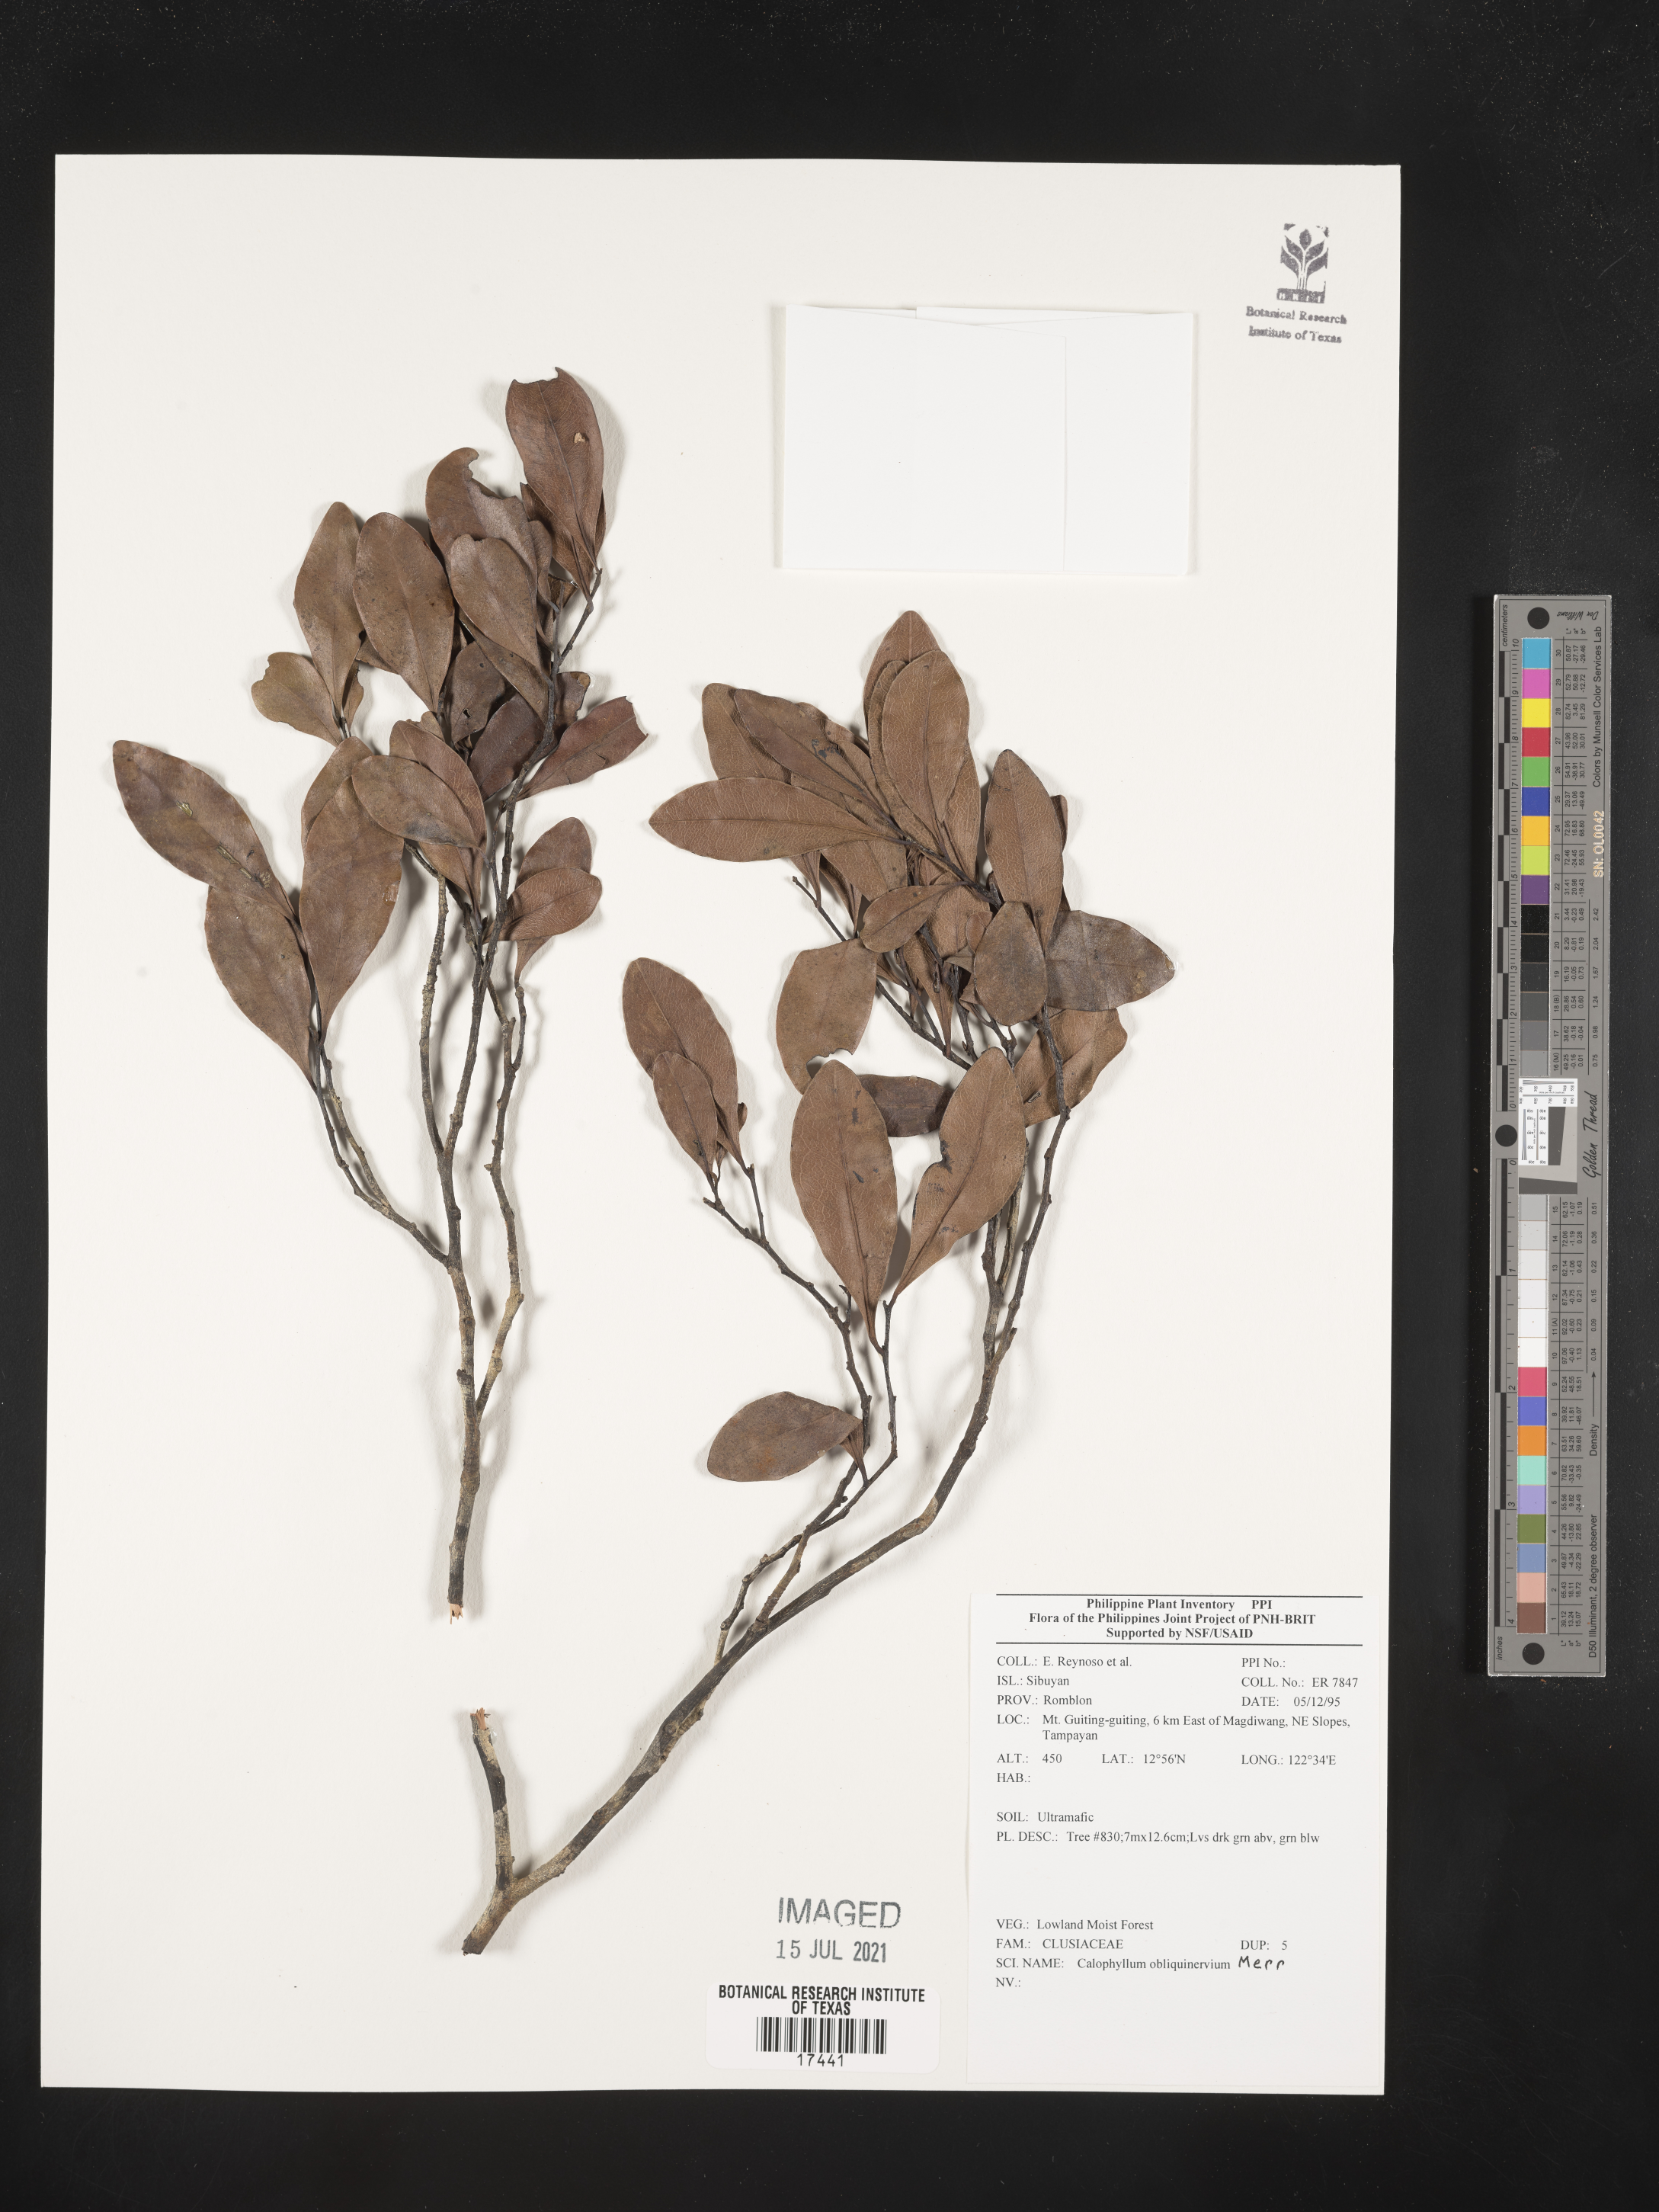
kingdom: Plantae
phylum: Tracheophyta
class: Magnoliopsida
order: Malpighiales
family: Calophyllaceae
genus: Calophyllum
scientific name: Calophyllum obliquinervium
